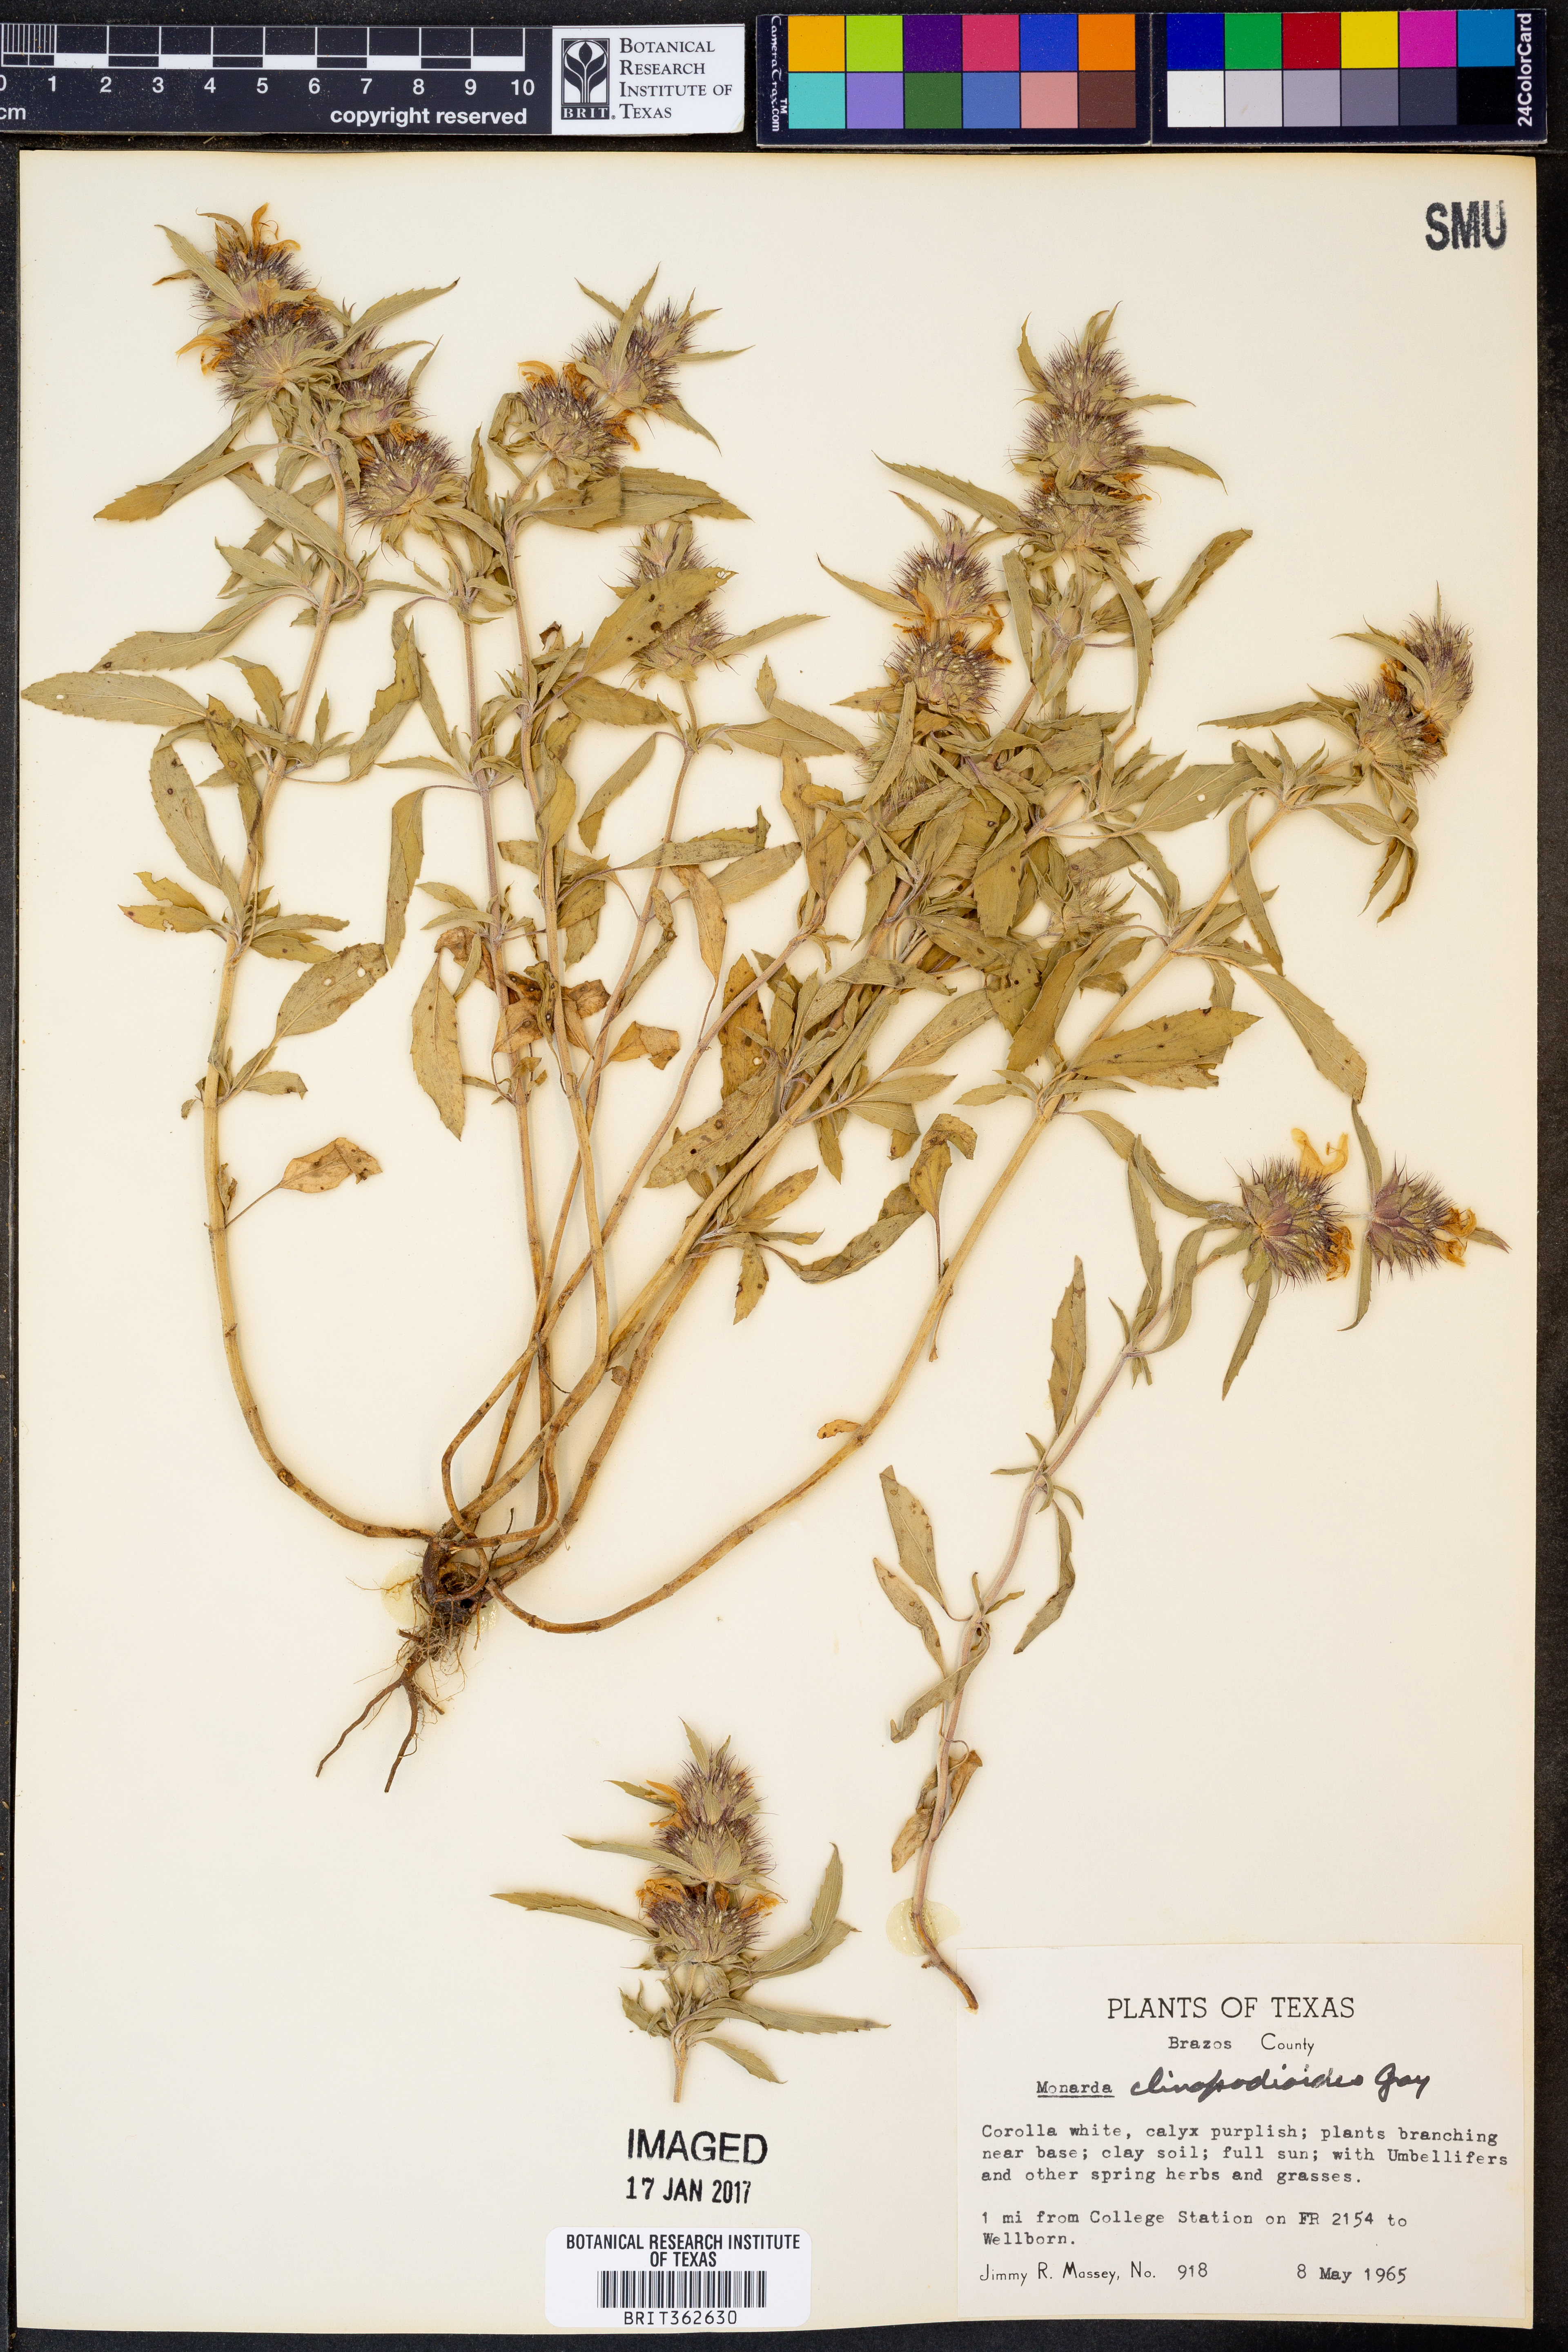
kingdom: Plantae
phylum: Tracheophyta
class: Magnoliopsida
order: Lamiales
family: Lamiaceae
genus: Monarda
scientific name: Monarda clinopodioides
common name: Basil beebalm
